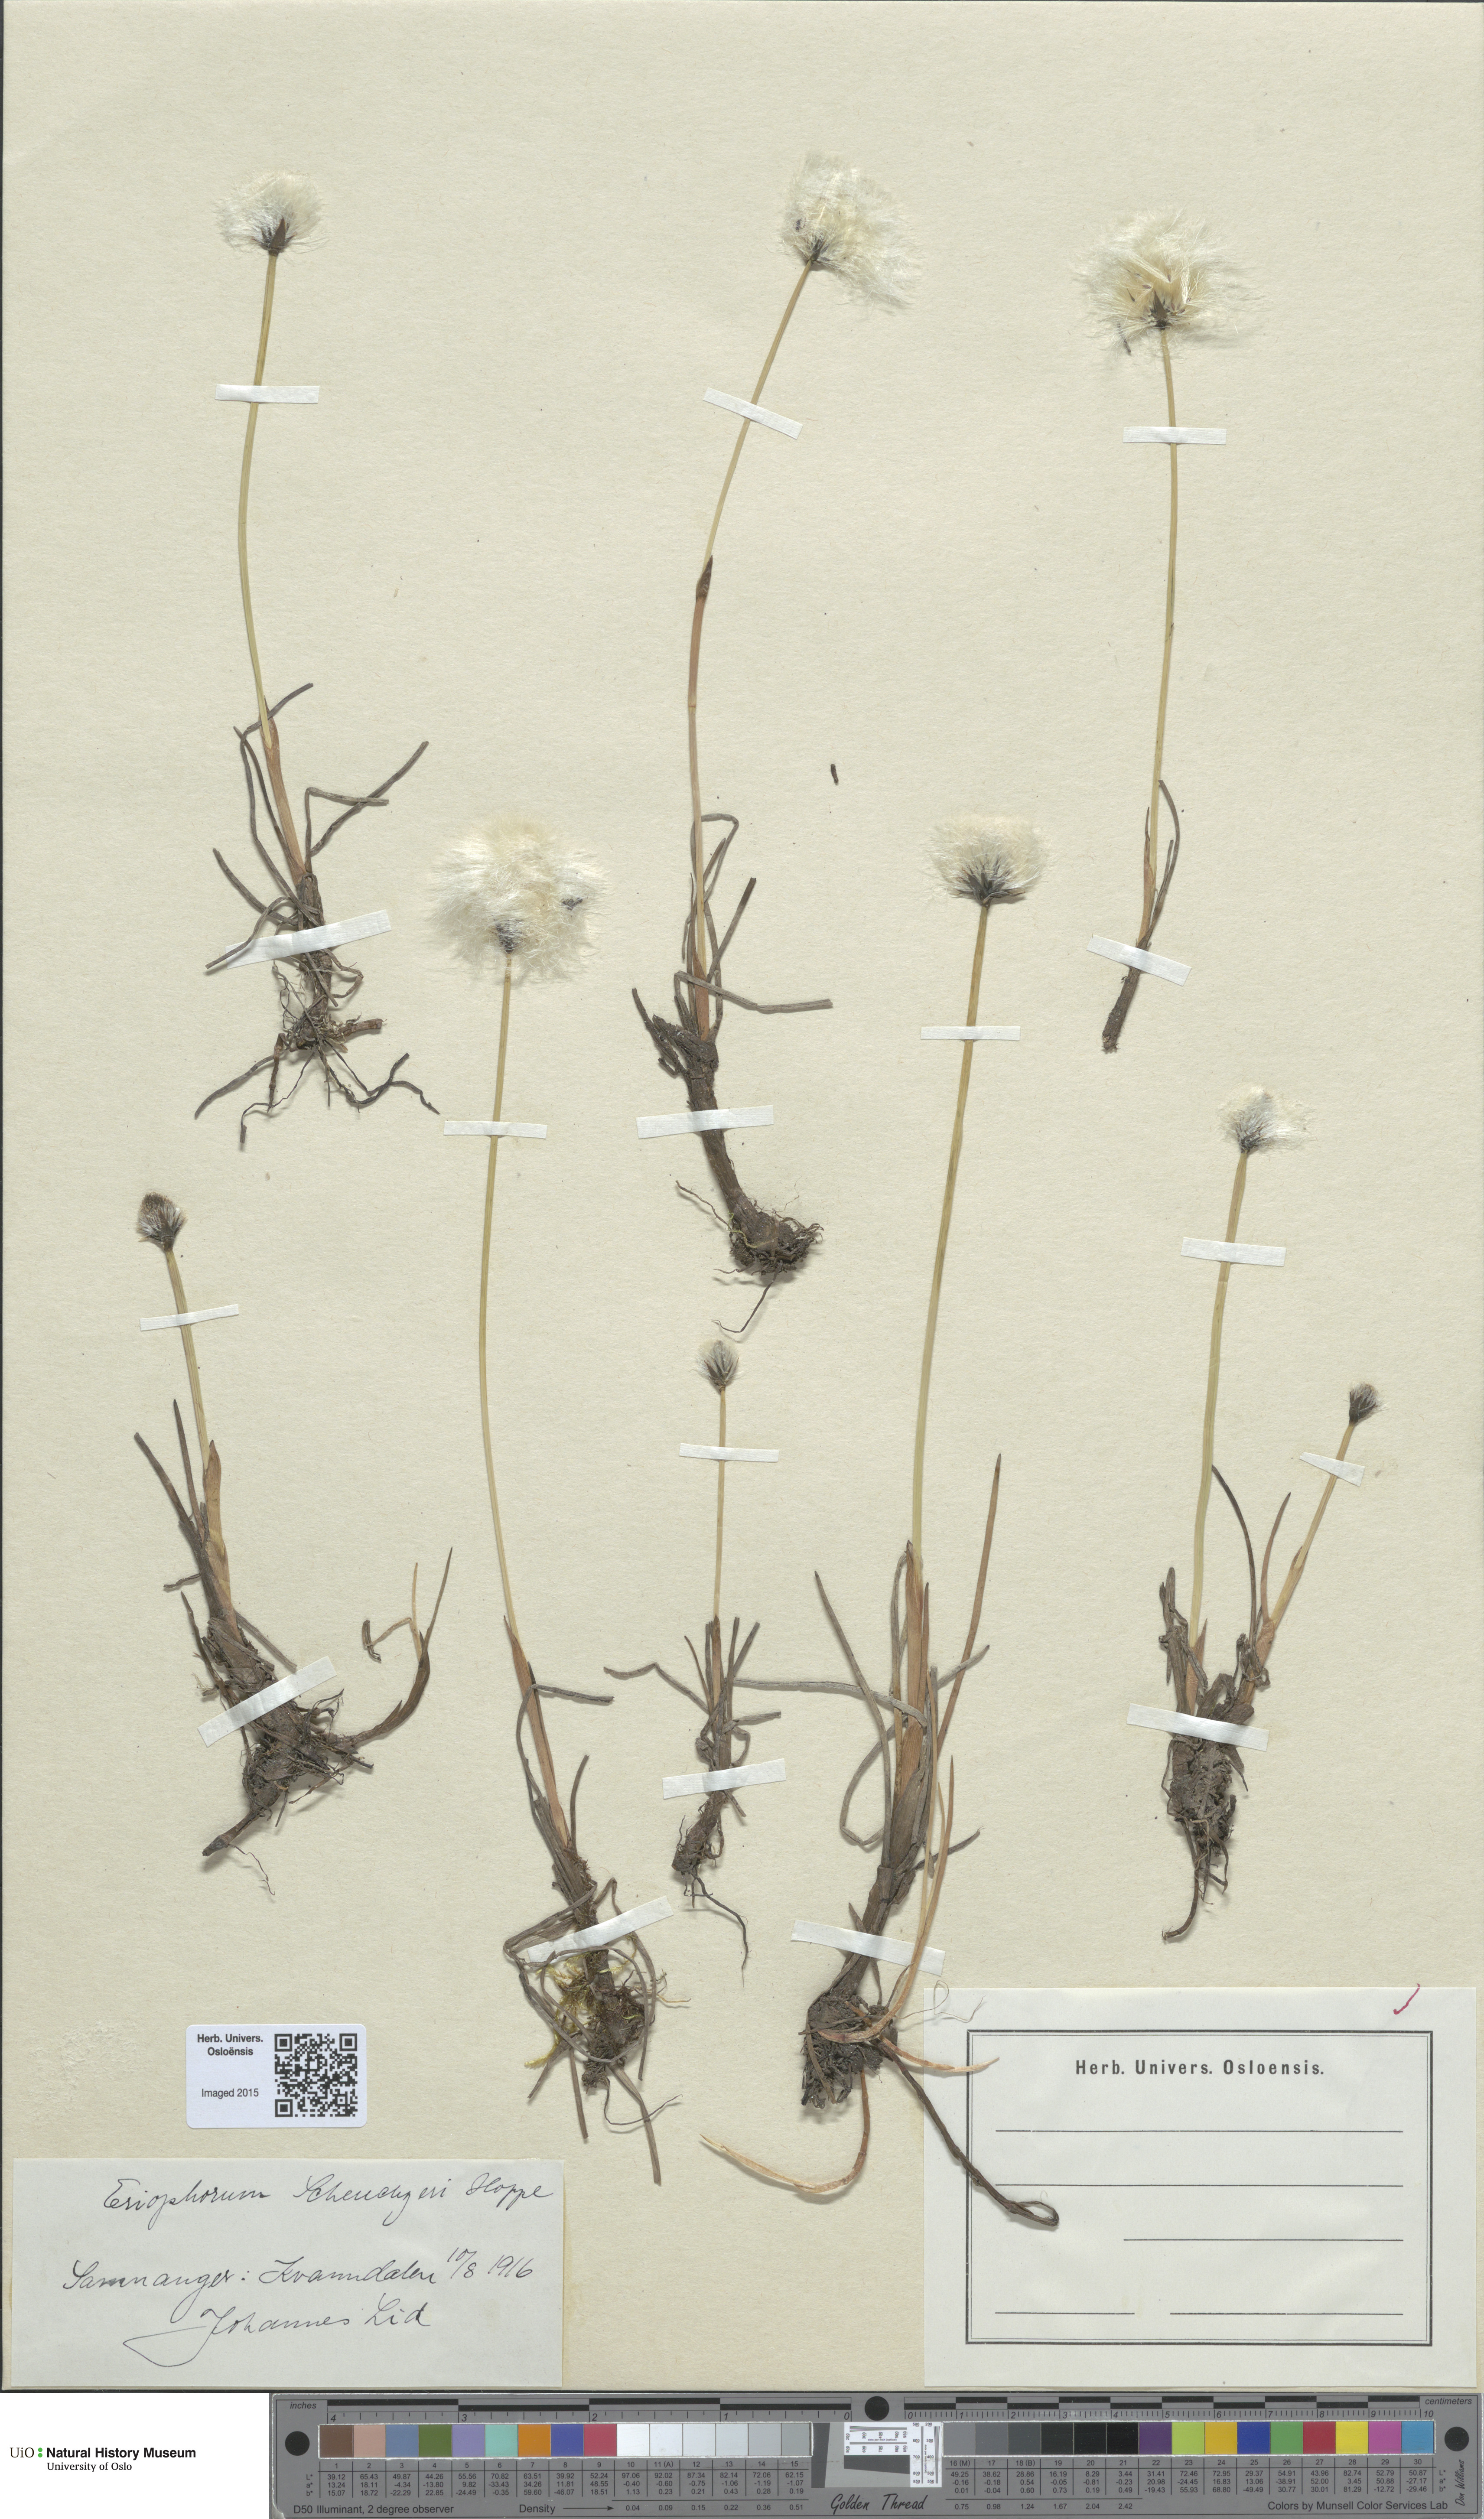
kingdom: Plantae
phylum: Tracheophyta
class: Liliopsida
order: Poales
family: Cyperaceae
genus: Eriophorum
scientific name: Eriophorum scheuchzeri
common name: Scheuchzer's cottongrass
